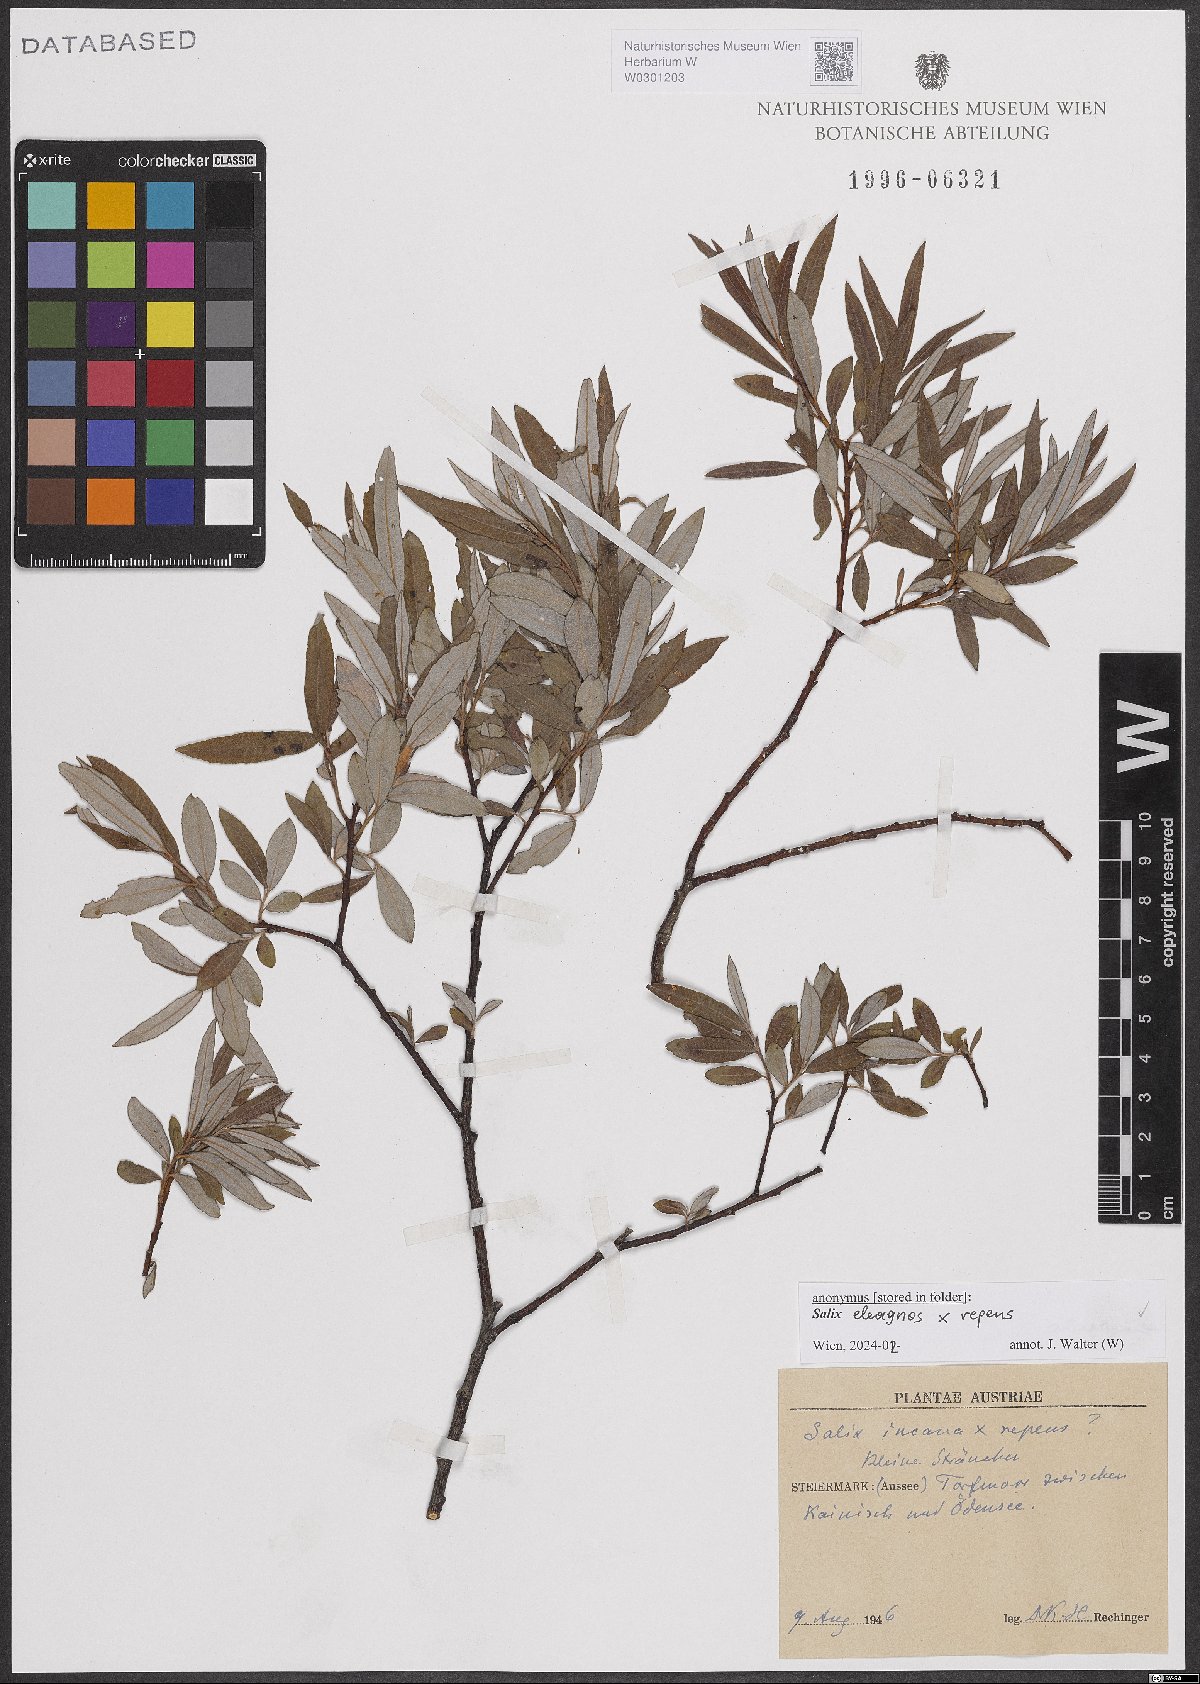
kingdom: Plantae
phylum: Tracheophyta
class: Magnoliopsida
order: Malpighiales
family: Salicaceae
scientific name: Salicaceae
